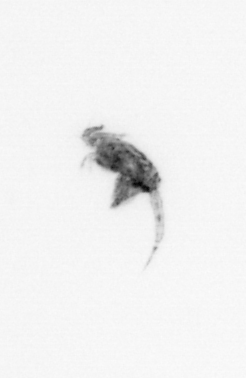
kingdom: Animalia
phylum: Arthropoda
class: Copepoda
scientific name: Copepoda
